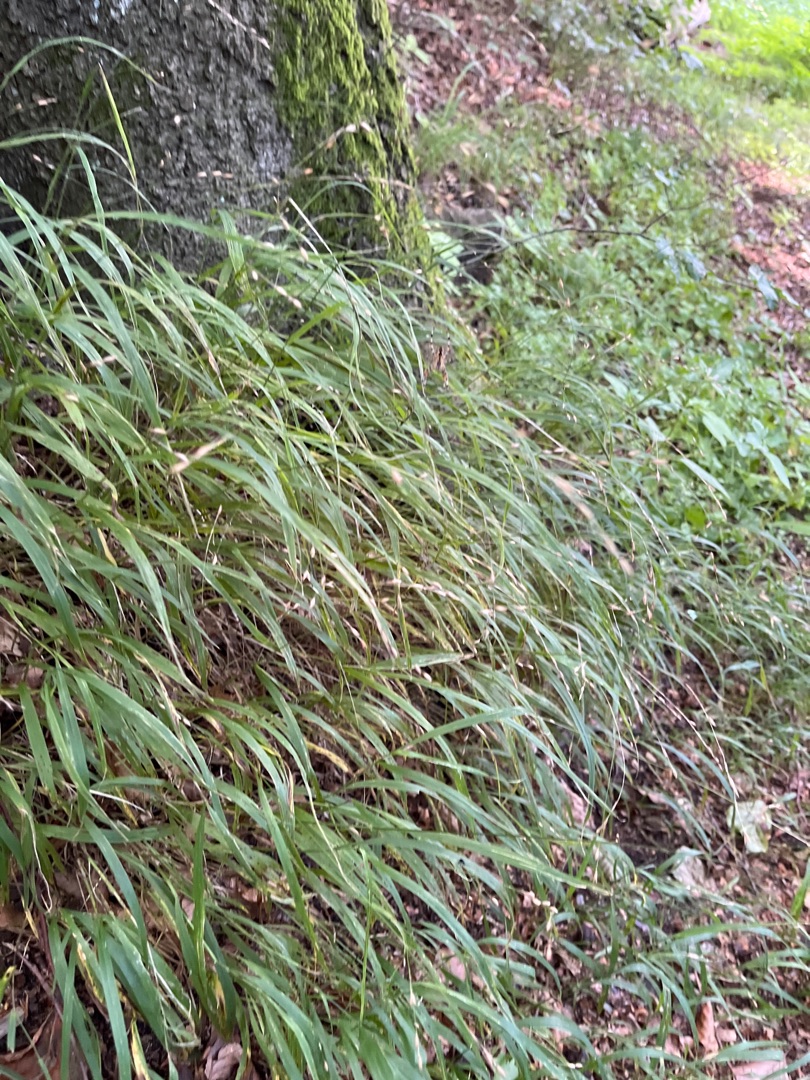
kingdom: Plantae
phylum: Tracheophyta
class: Liliopsida
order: Poales
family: Poaceae
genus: Melica
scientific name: Melica uniflora
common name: Enblomstret flitteraks
